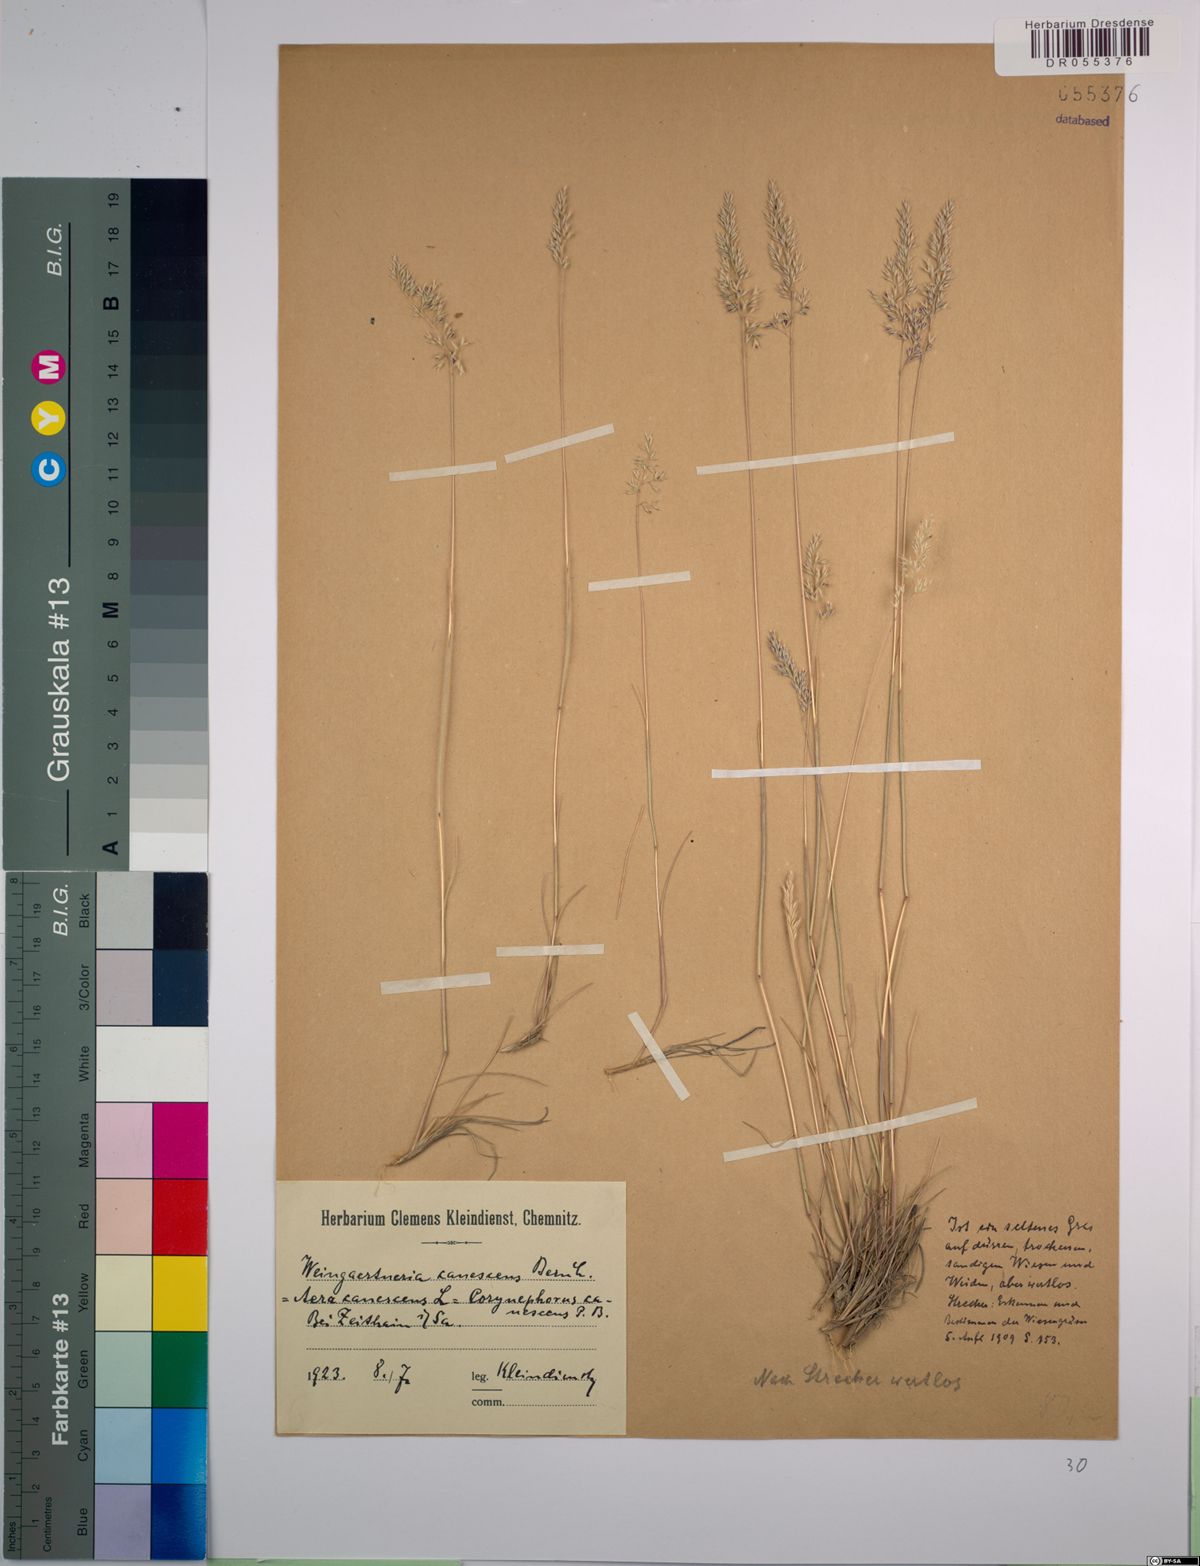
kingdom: Plantae
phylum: Tracheophyta
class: Liliopsida
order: Poales
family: Poaceae
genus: Corynephorus
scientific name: Corynephorus canescens
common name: Grey hair-grass
